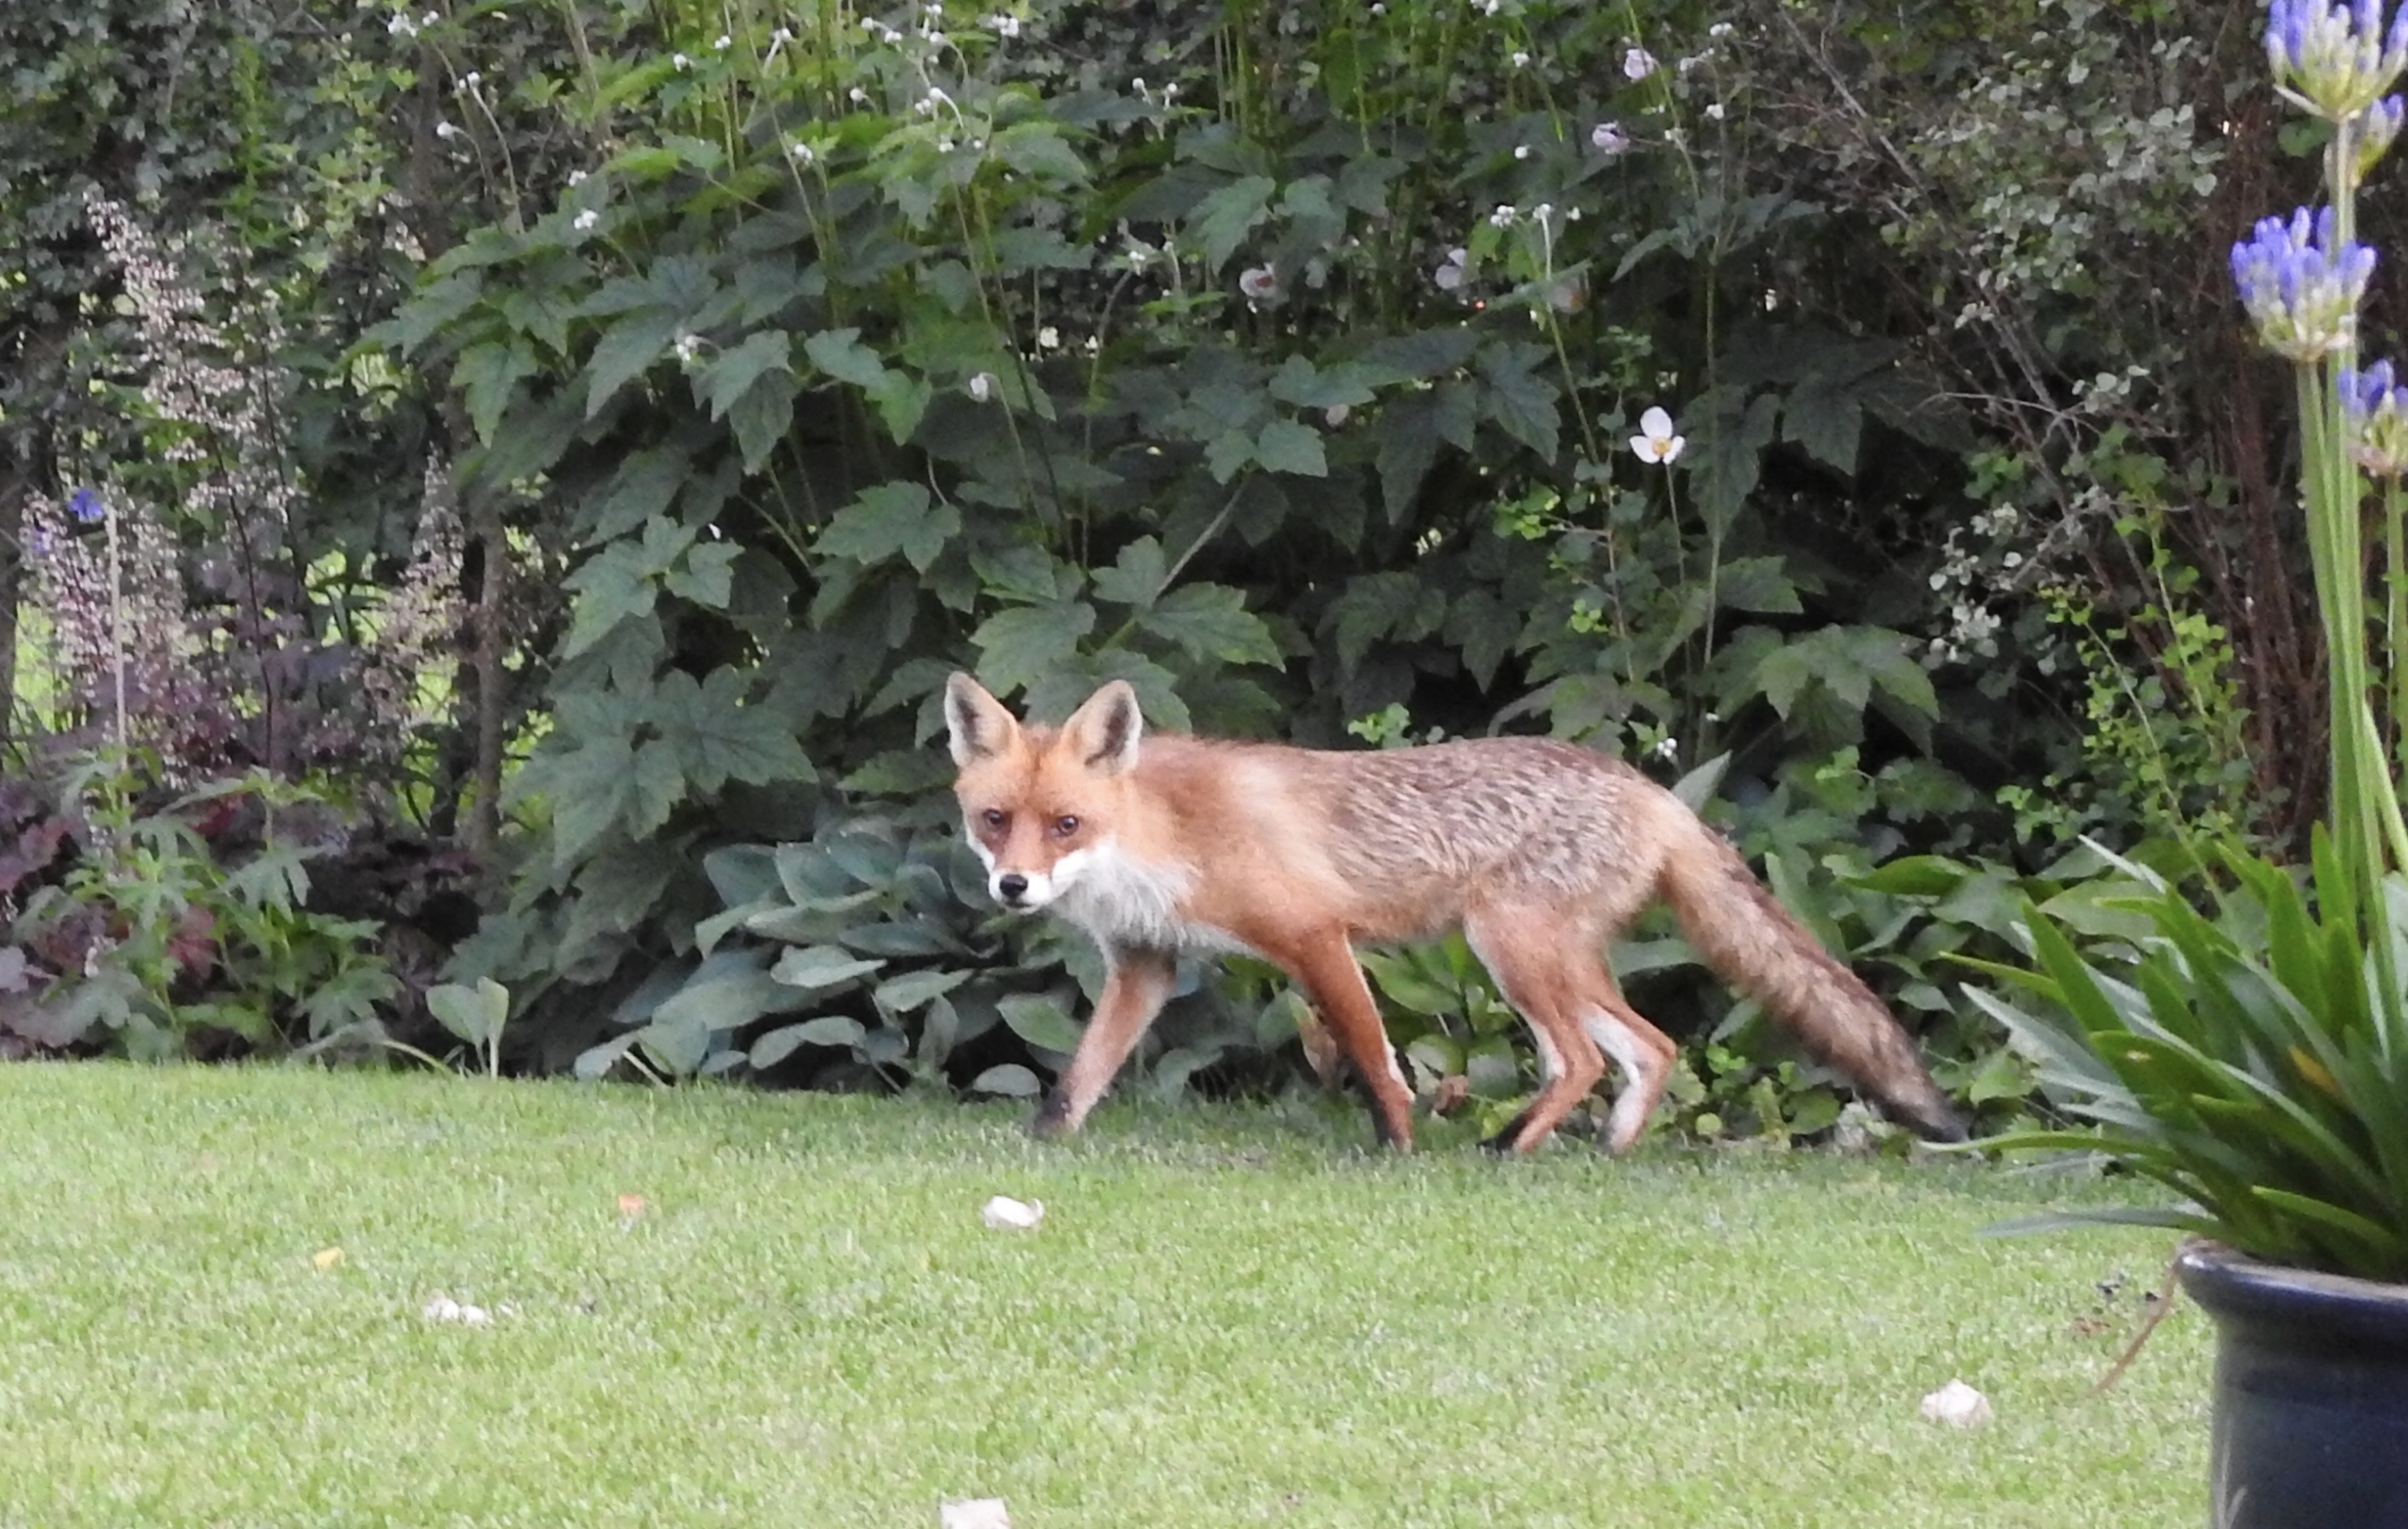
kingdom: Animalia
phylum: Chordata
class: Mammalia
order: Carnivora
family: Canidae
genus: Vulpes
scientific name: Vulpes vulpes
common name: Ræv
